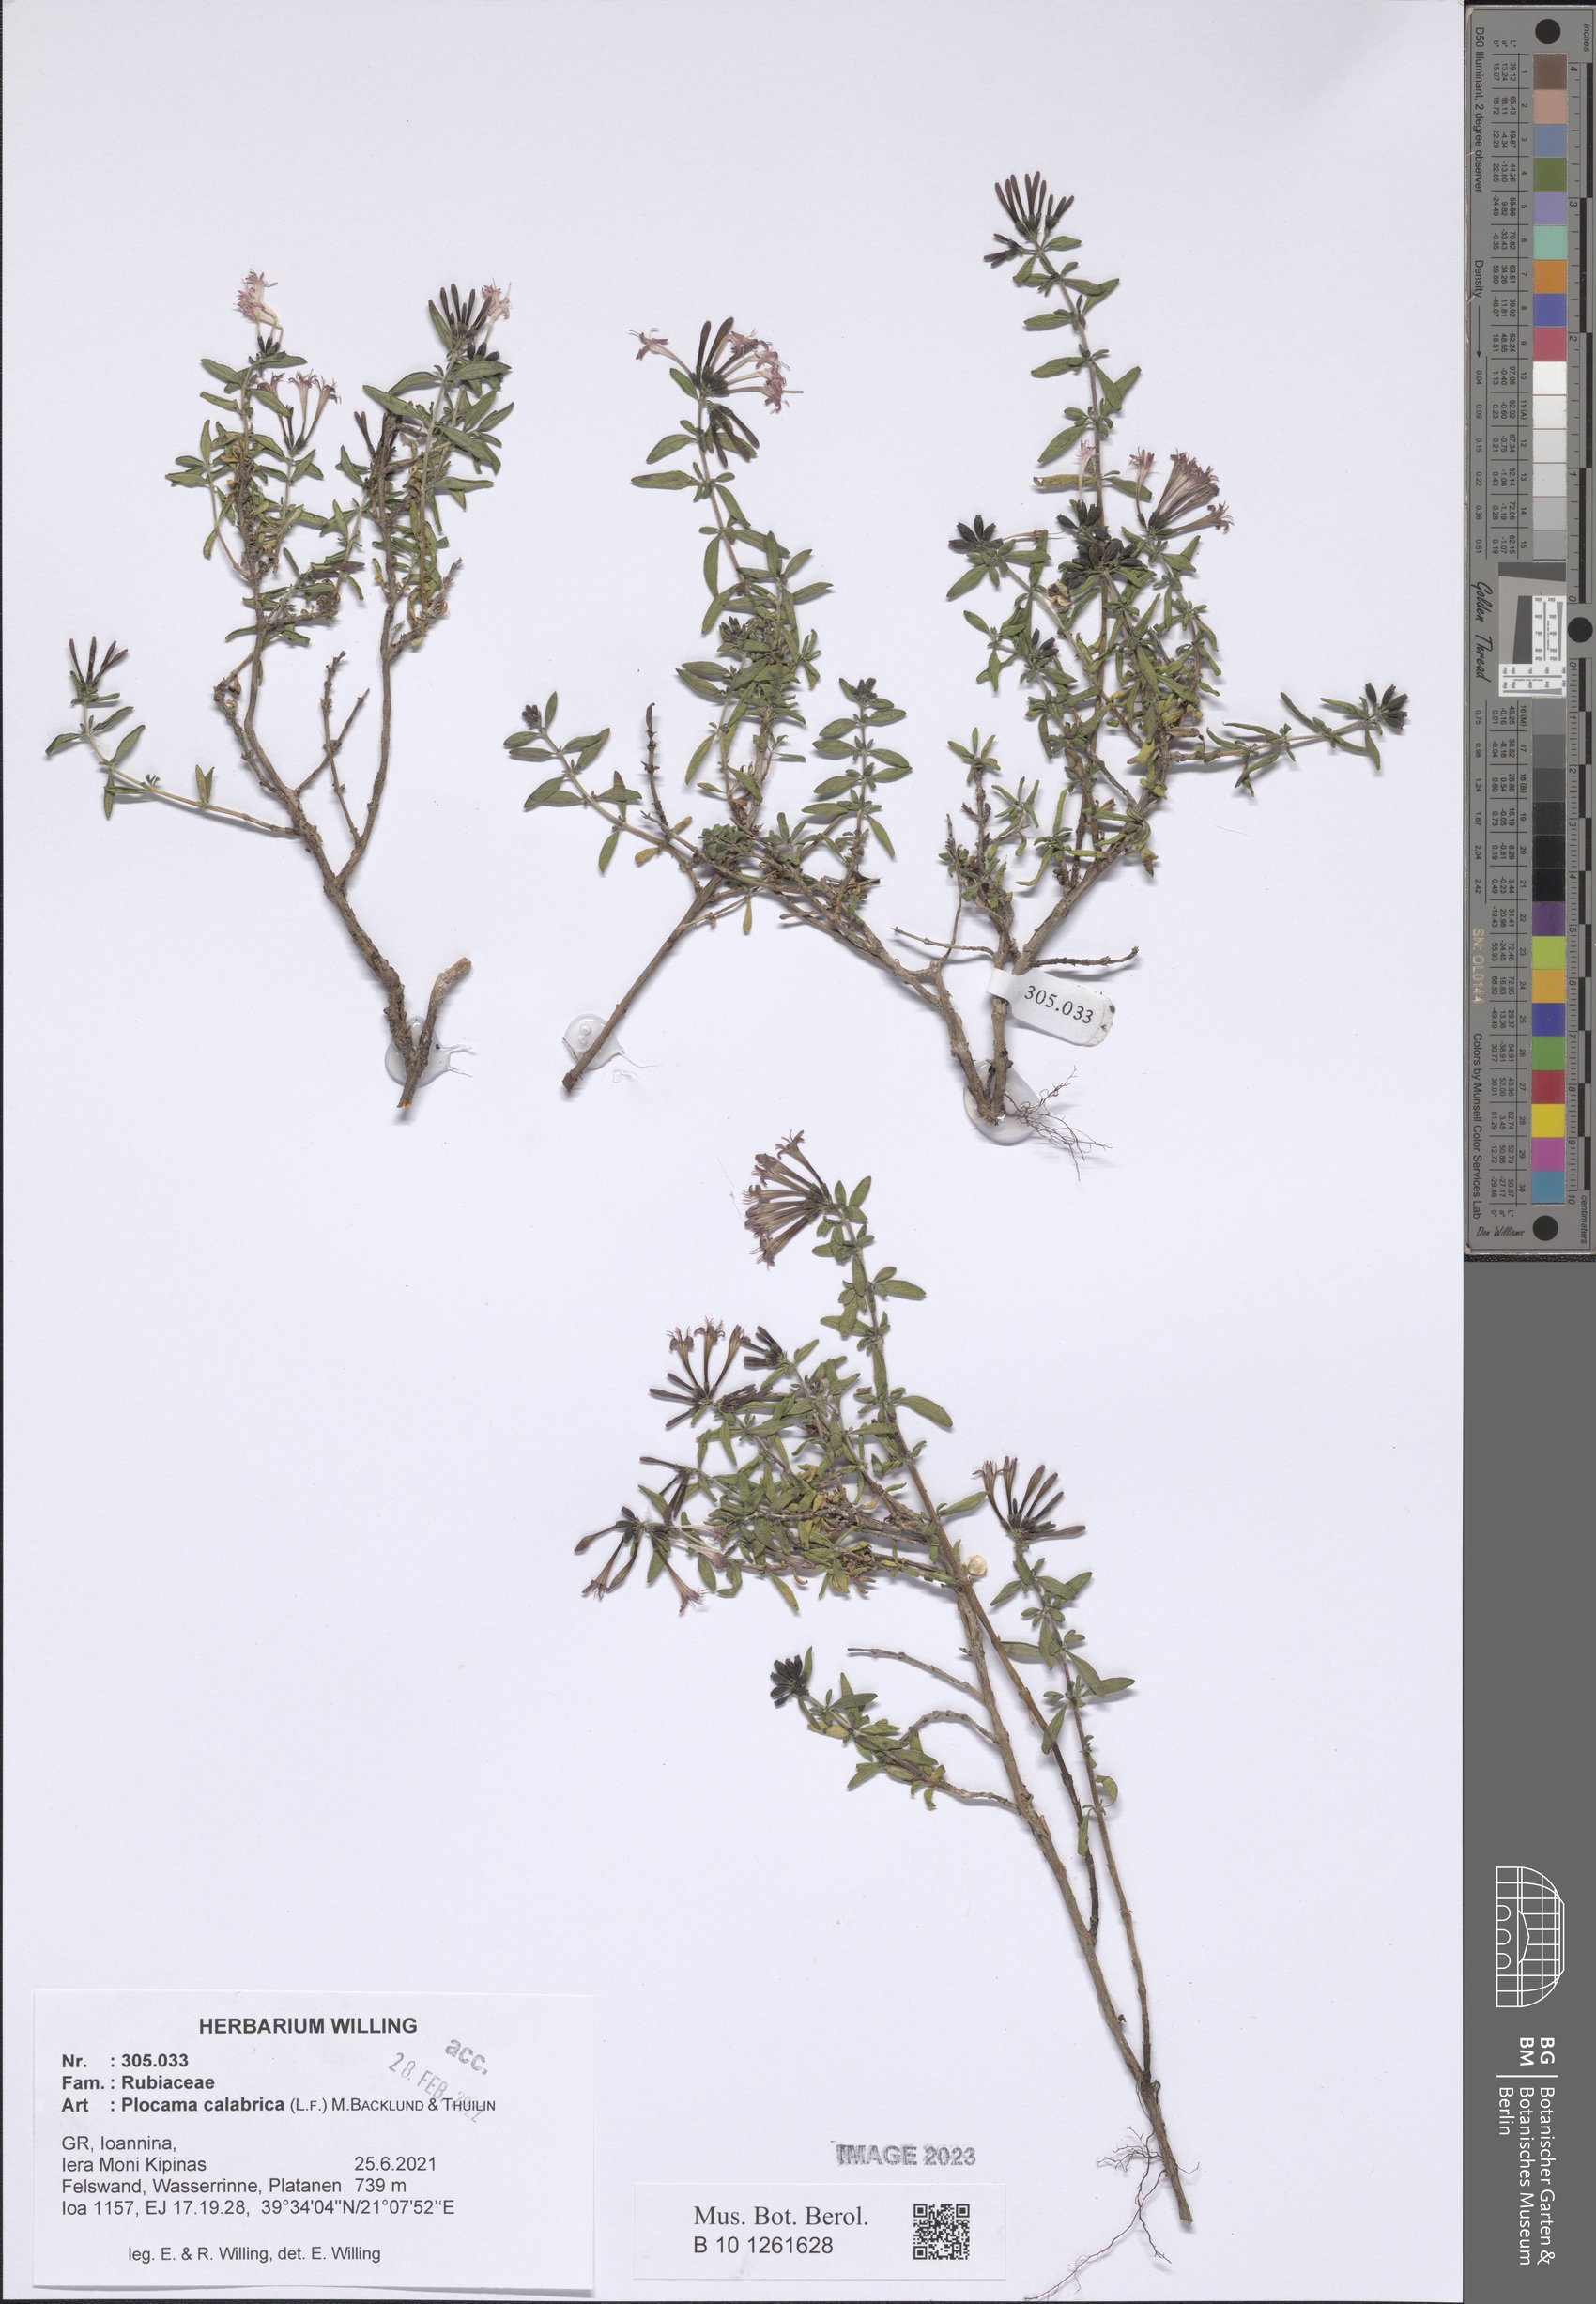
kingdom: Plantae
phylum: Tracheophyta
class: Magnoliopsida
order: Gentianales
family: Rubiaceae
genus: Plocama
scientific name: Plocama calabrica
